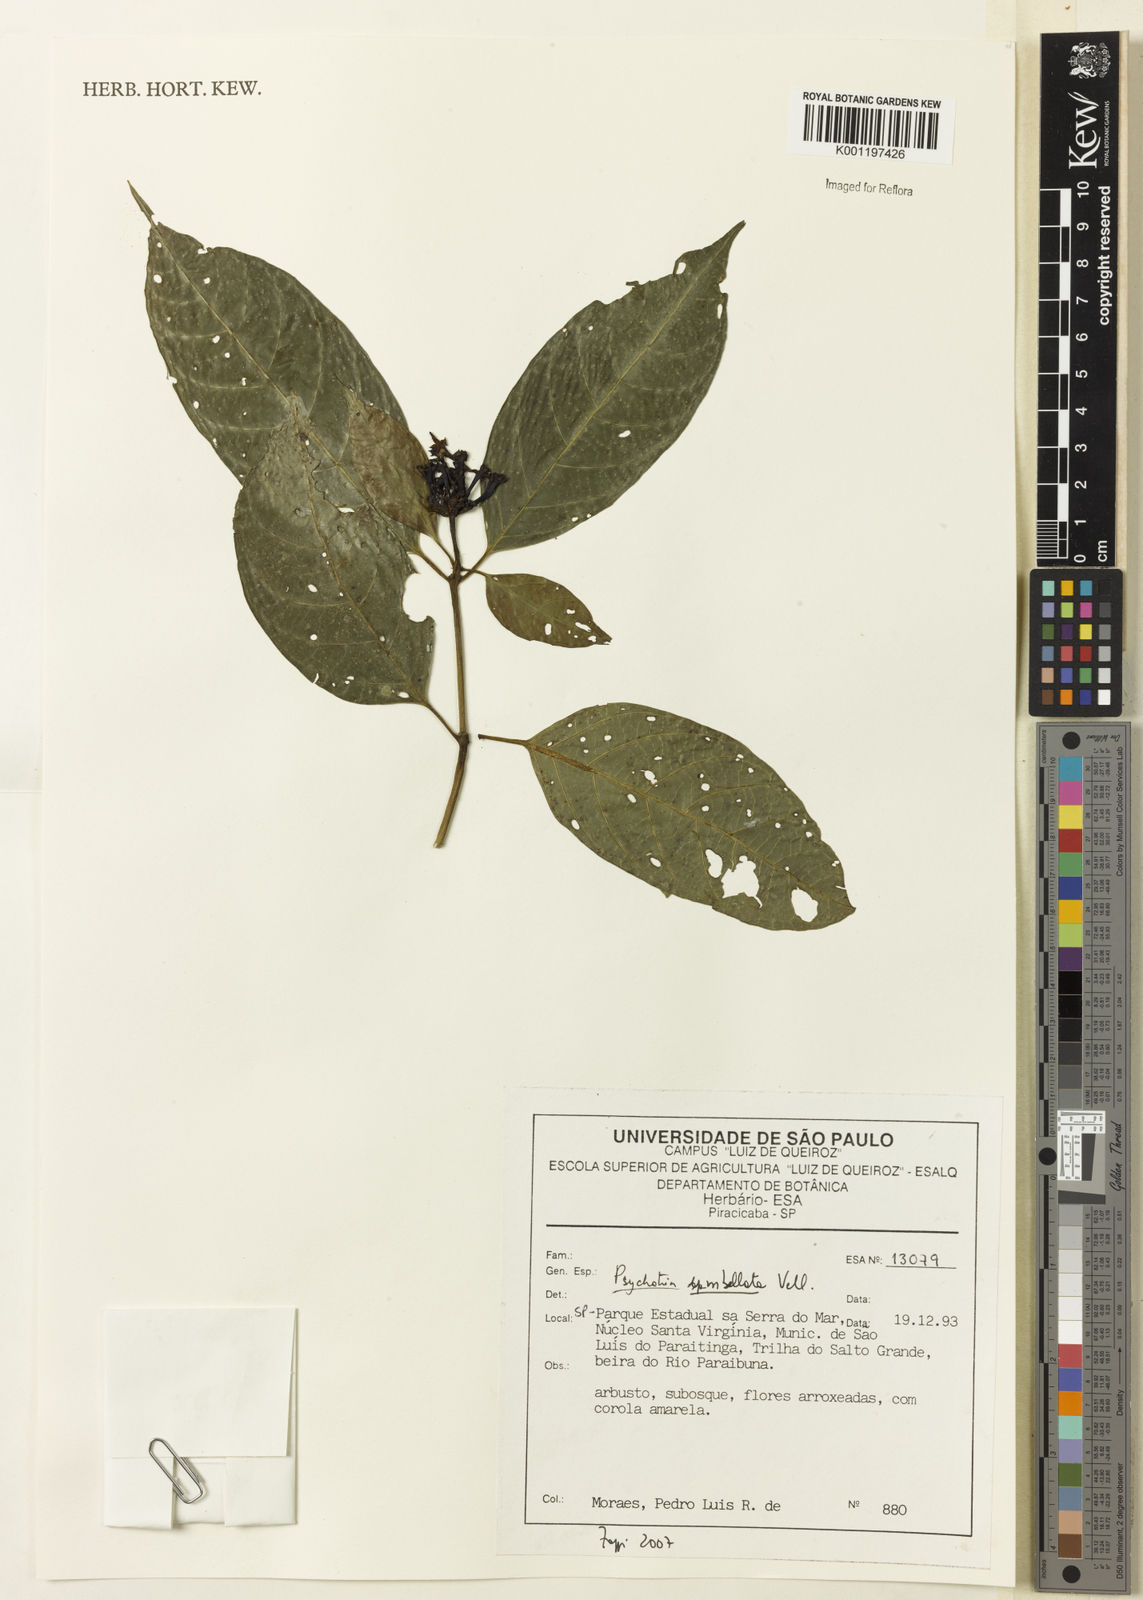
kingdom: Plantae
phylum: Tracheophyta
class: Magnoliopsida
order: Gentianales
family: Rubiaceae
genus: Psychotria
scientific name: Psychotria
